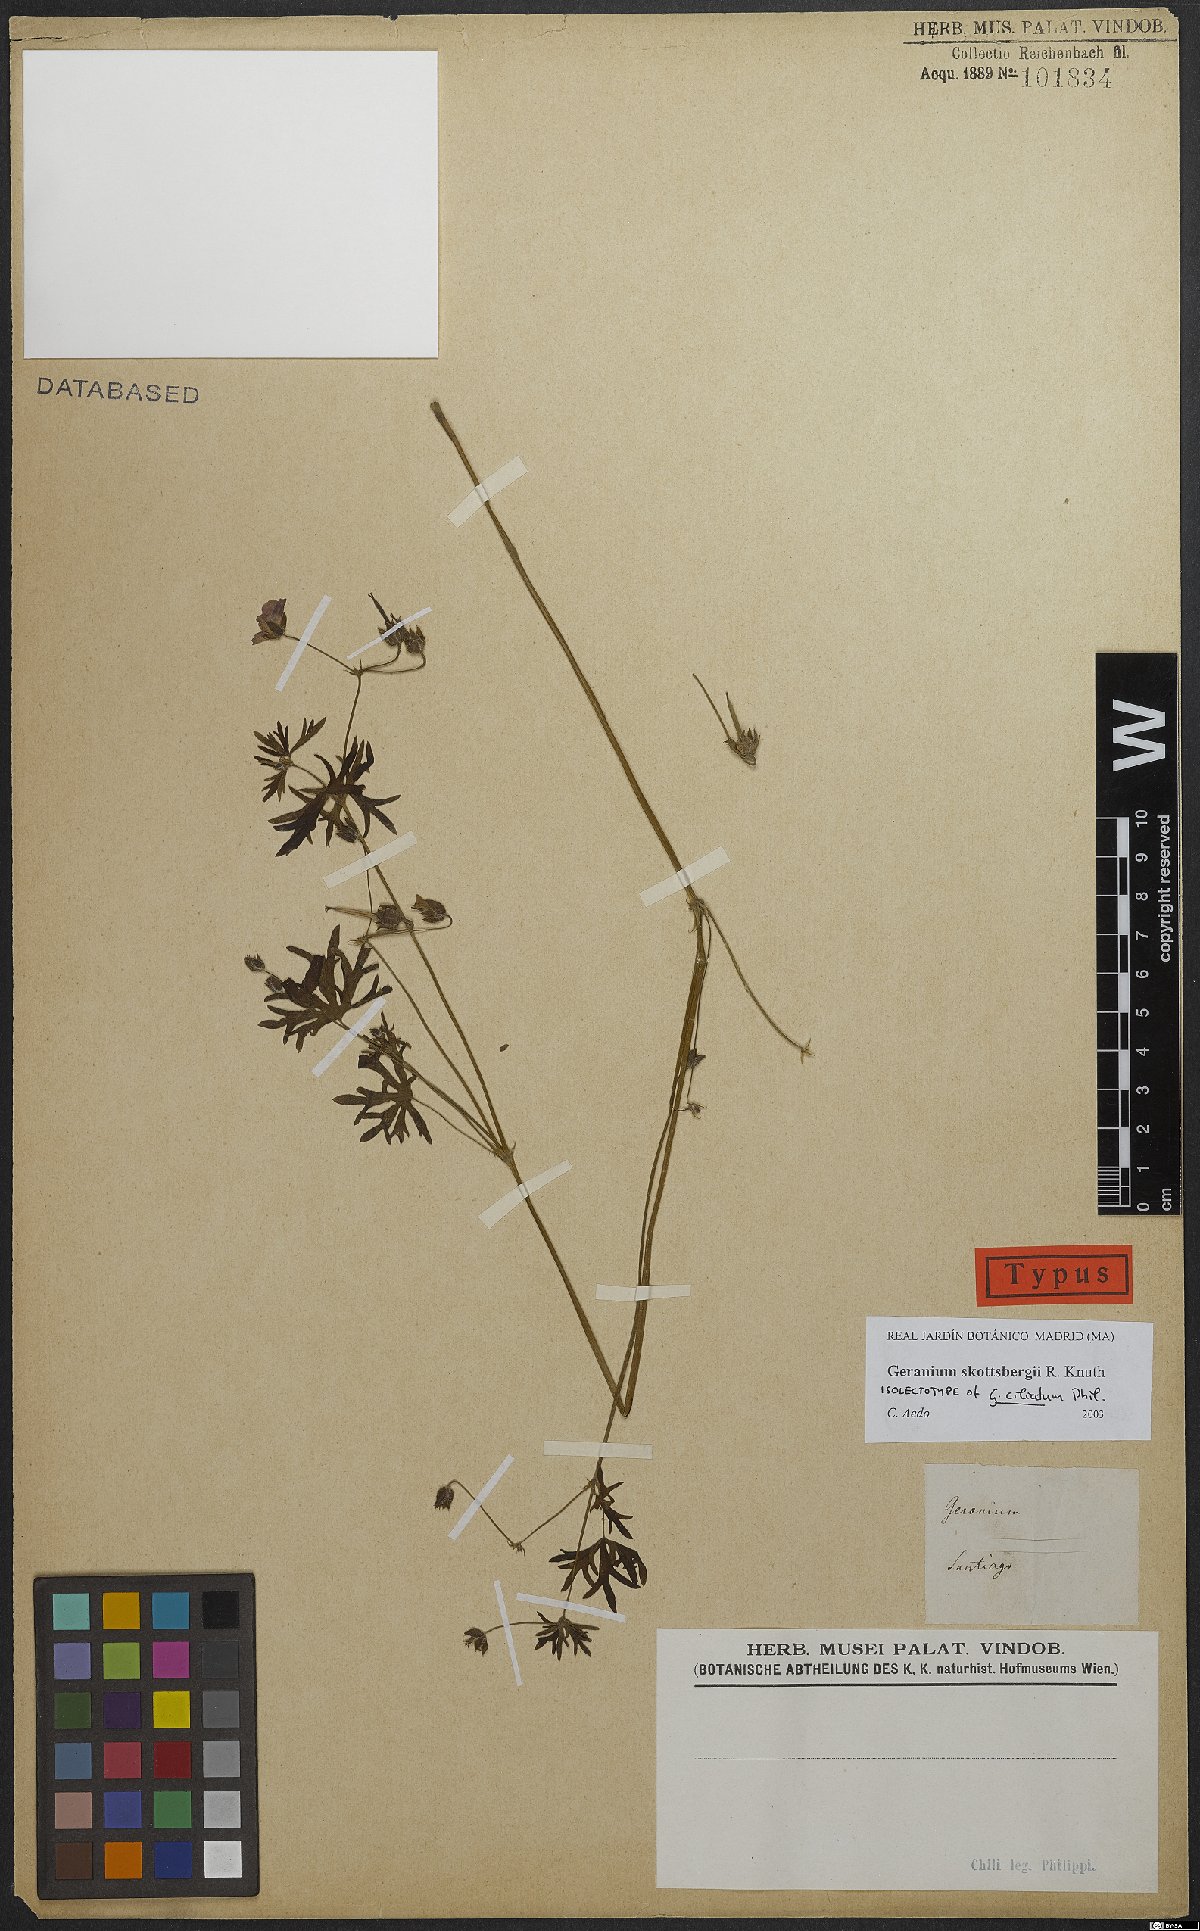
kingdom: Plantae
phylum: Tracheophyta
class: Magnoliopsida
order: Geraniales
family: Geraniaceae
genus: Geranium
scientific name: Geranium skottsbergii
